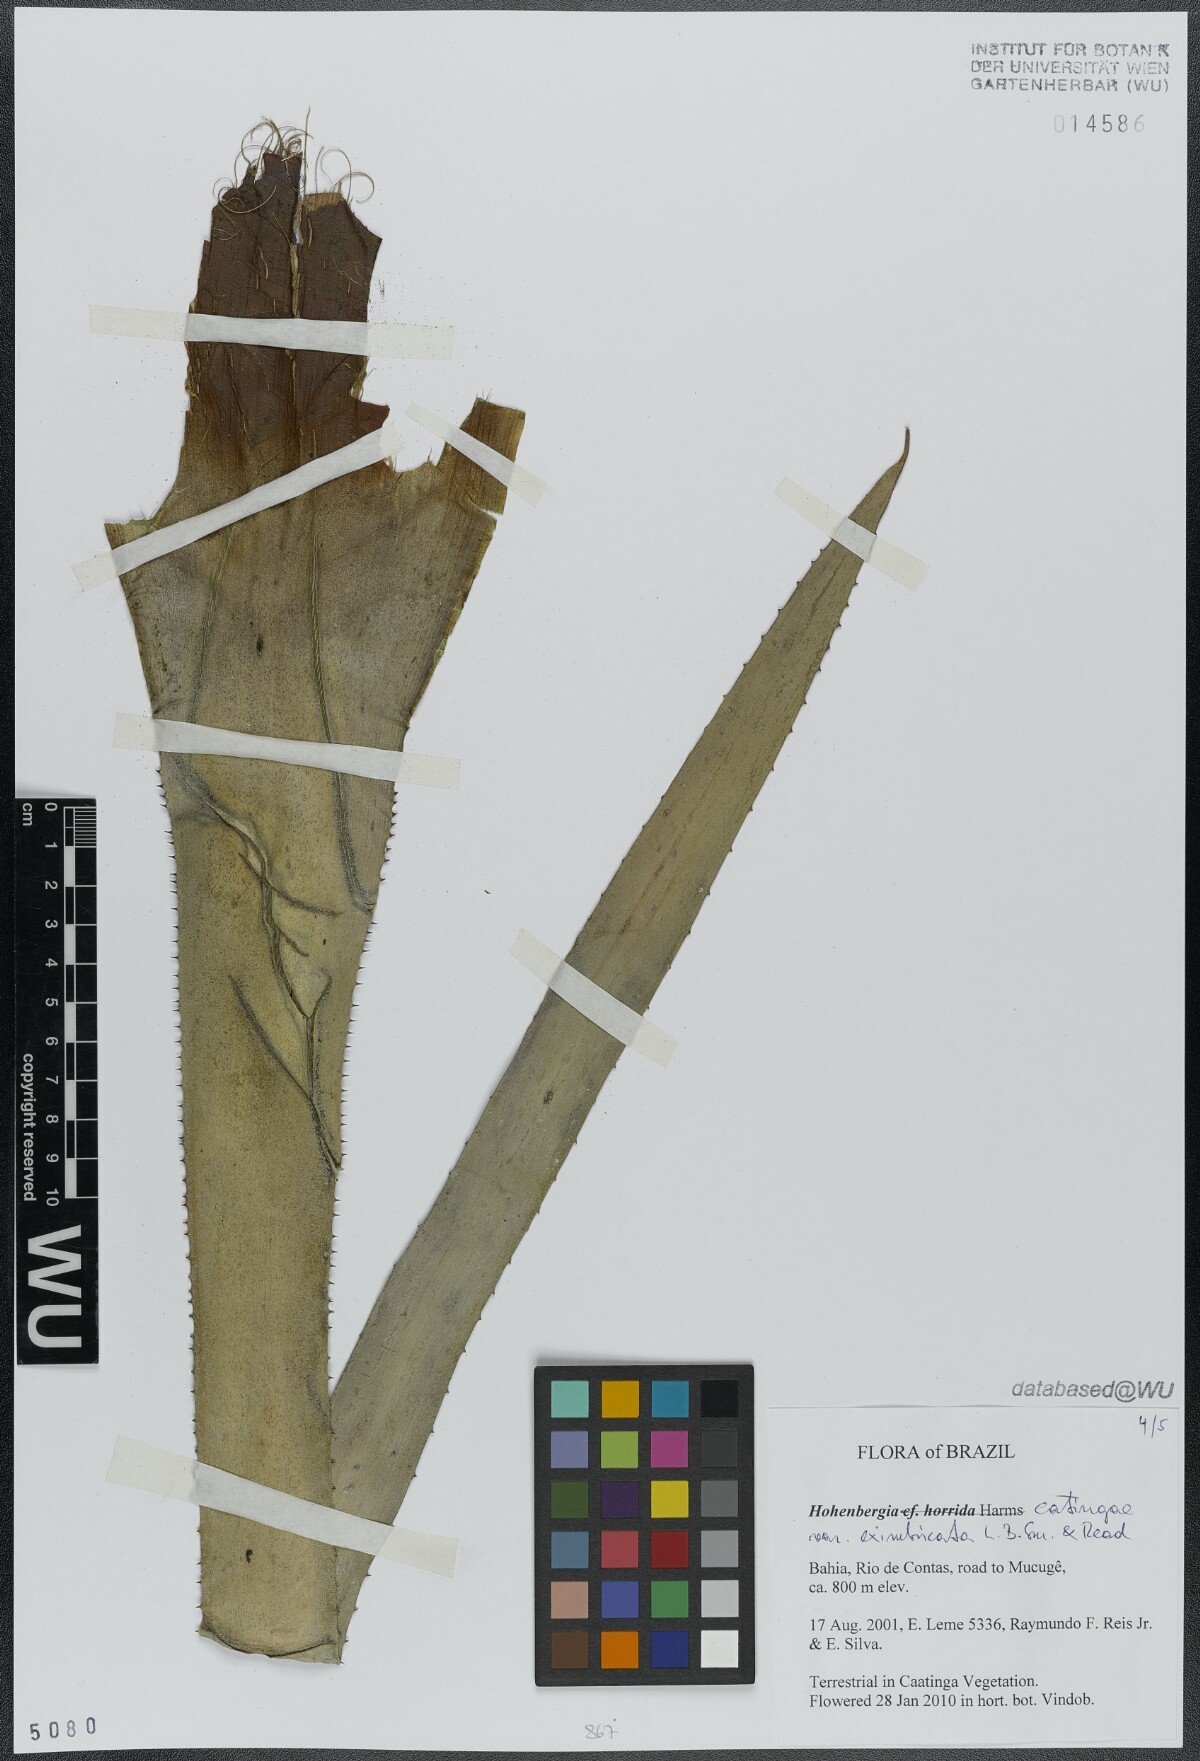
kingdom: Plantae
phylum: Tracheophyta
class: Liliopsida
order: Poales
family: Bromeliaceae
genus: Hohenbergia
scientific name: Hohenbergia catingae
